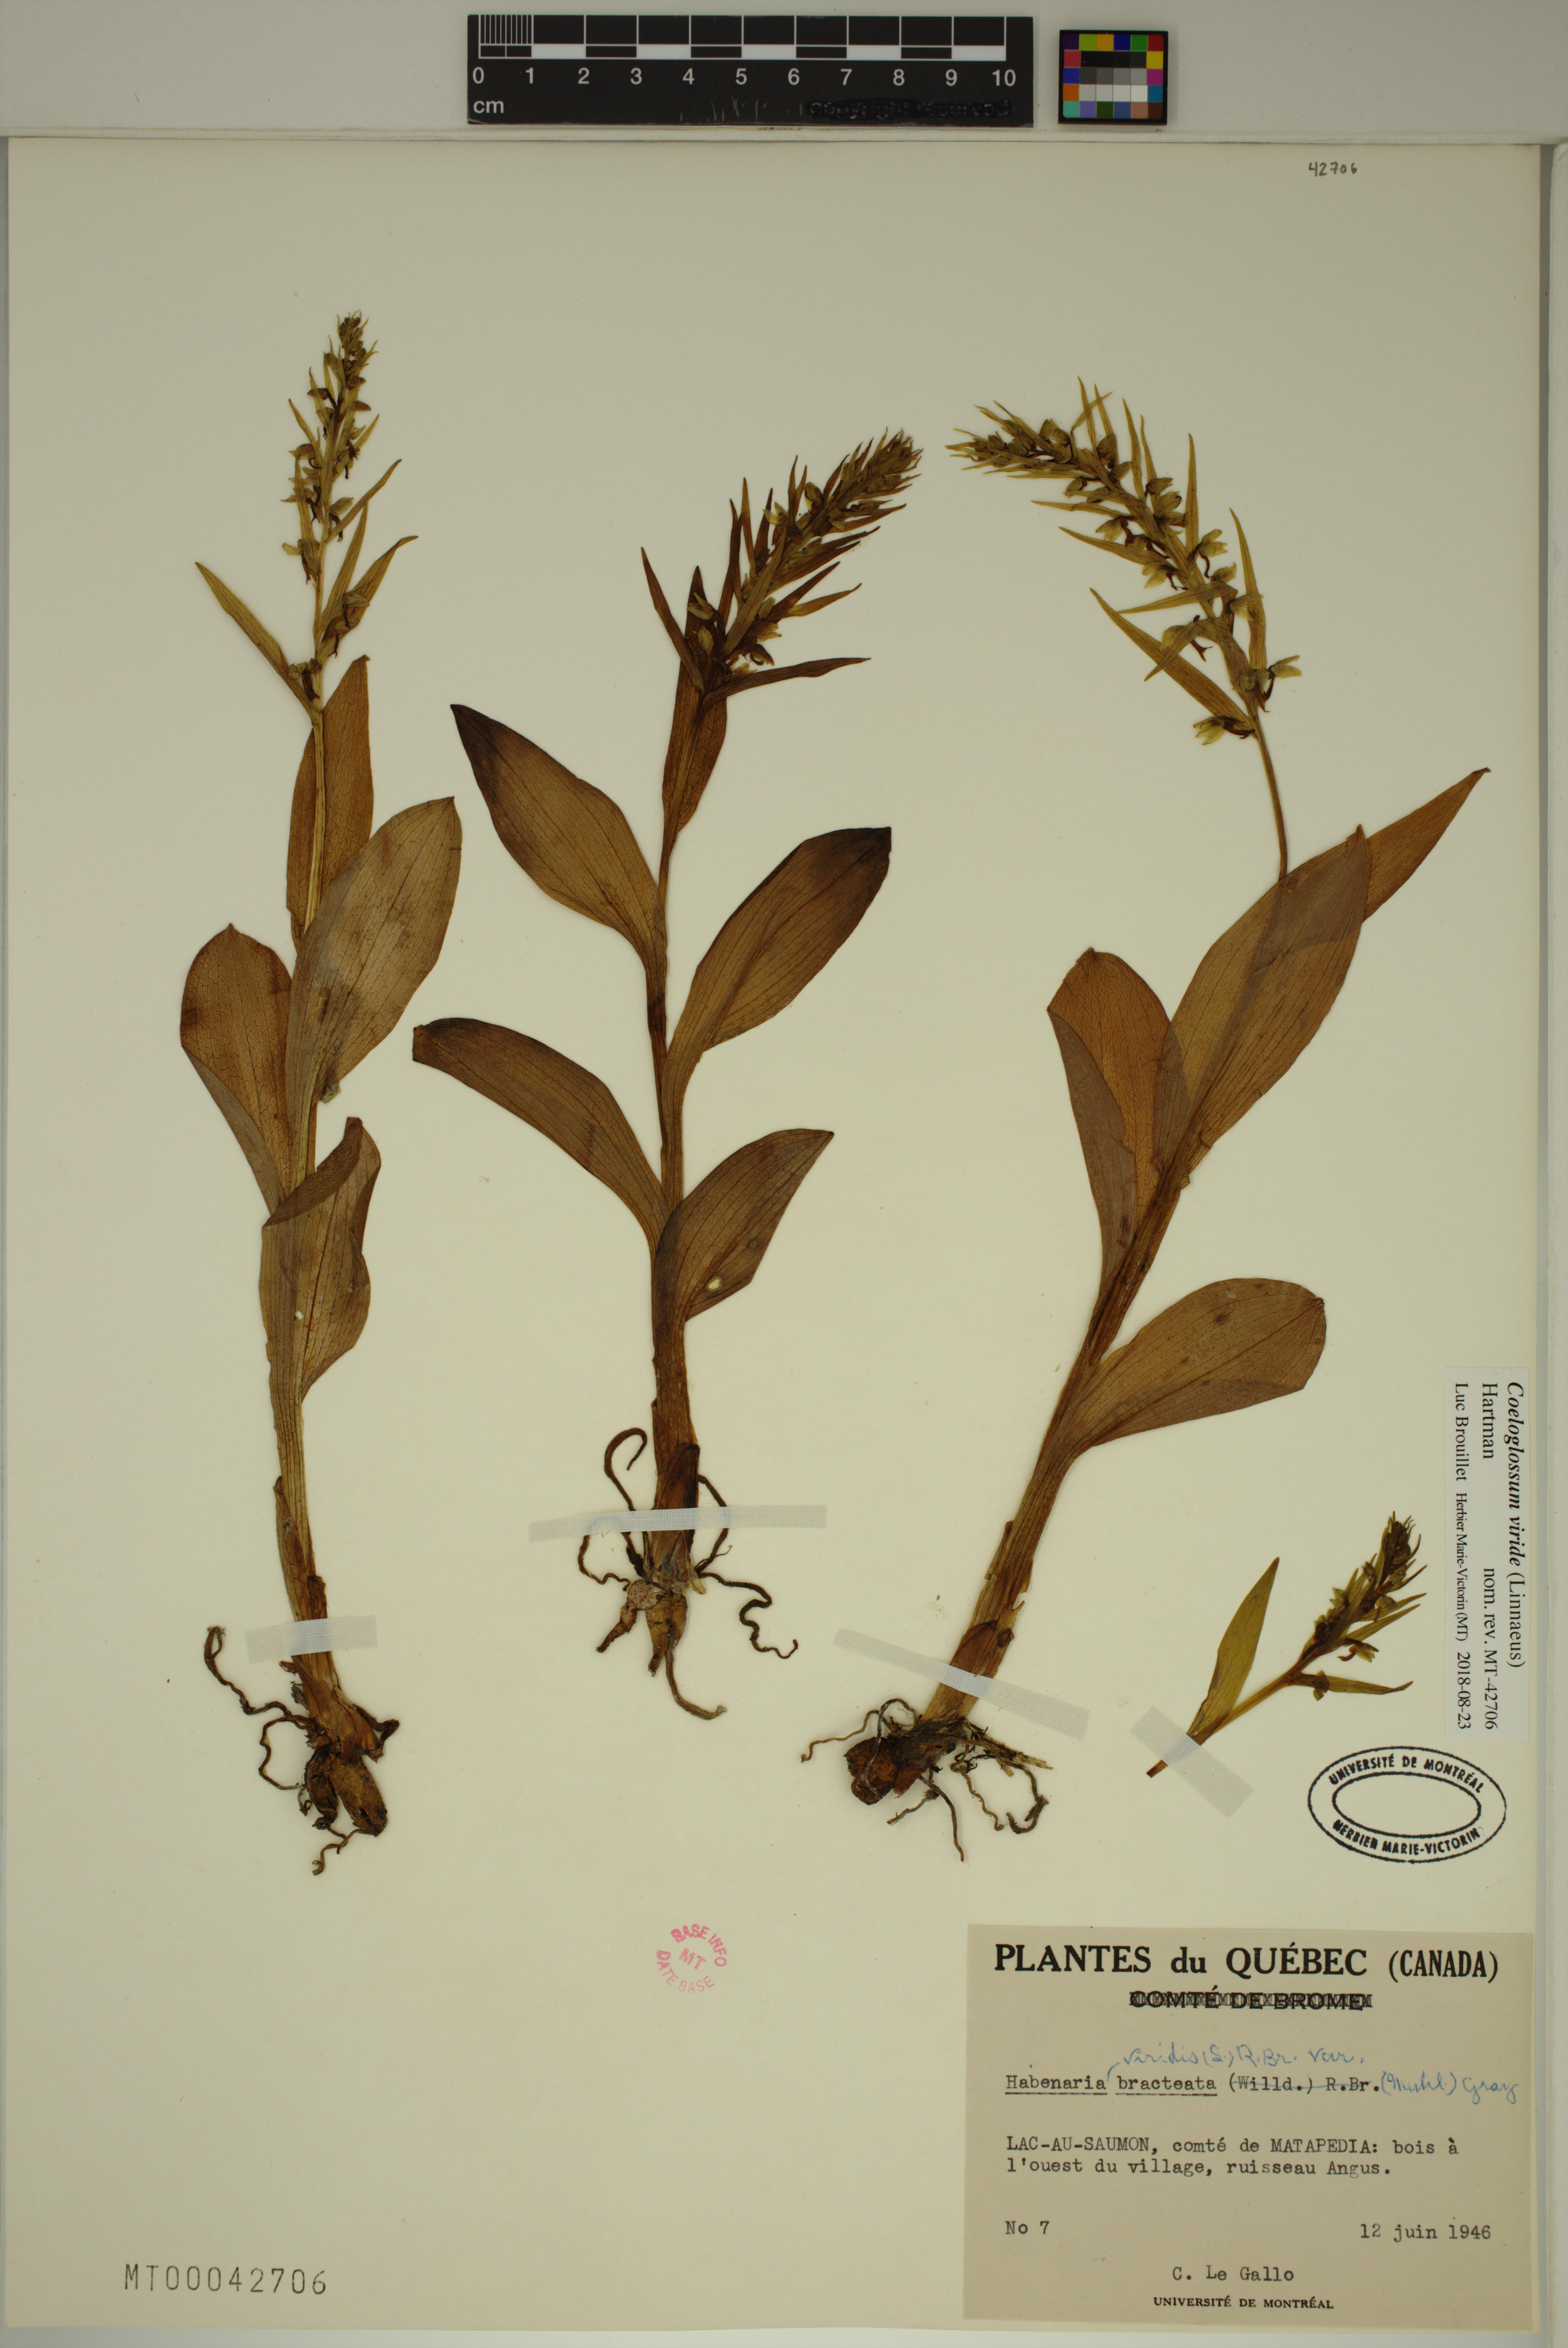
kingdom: Plantae
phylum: Tracheophyta
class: Liliopsida
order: Asparagales
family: Orchidaceae
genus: Dactylorhiza
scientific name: Dactylorhiza viridis
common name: Longbract frog orchid
